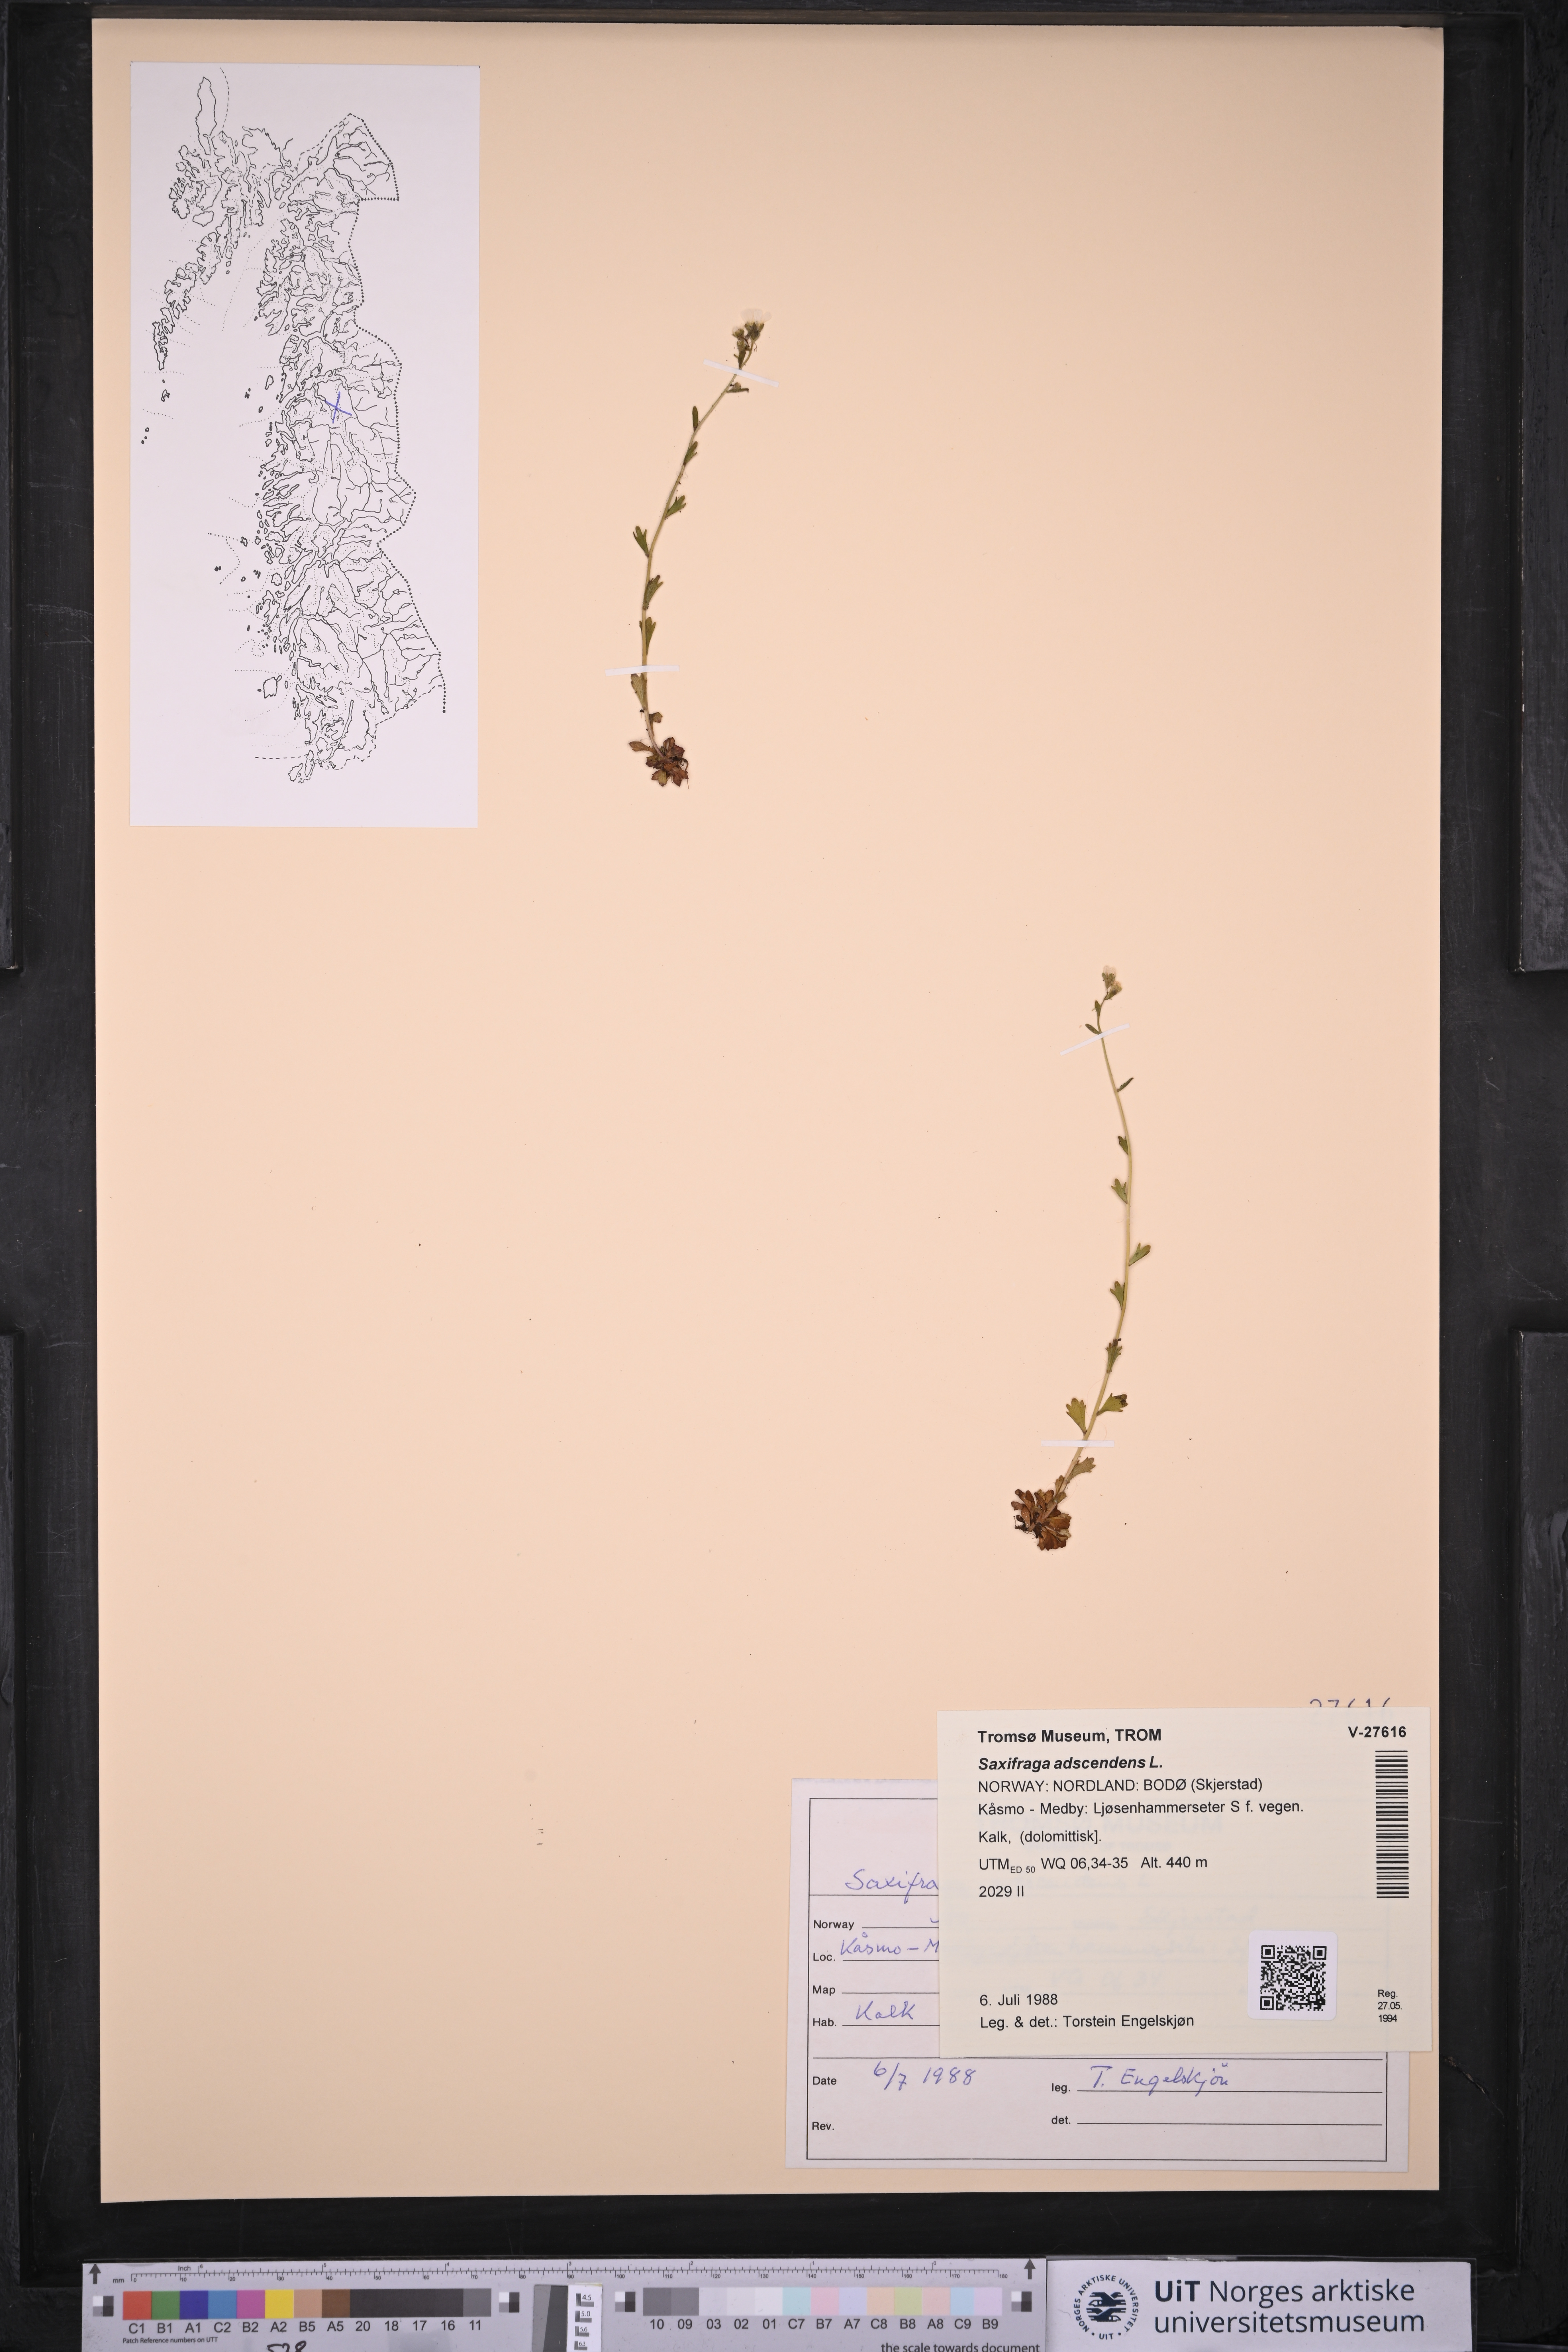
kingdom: Plantae
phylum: Tracheophyta
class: Magnoliopsida
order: Saxifragales
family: Saxifragaceae
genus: Saxifraga
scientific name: Saxifraga adscendens
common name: Ascending saxifrage
